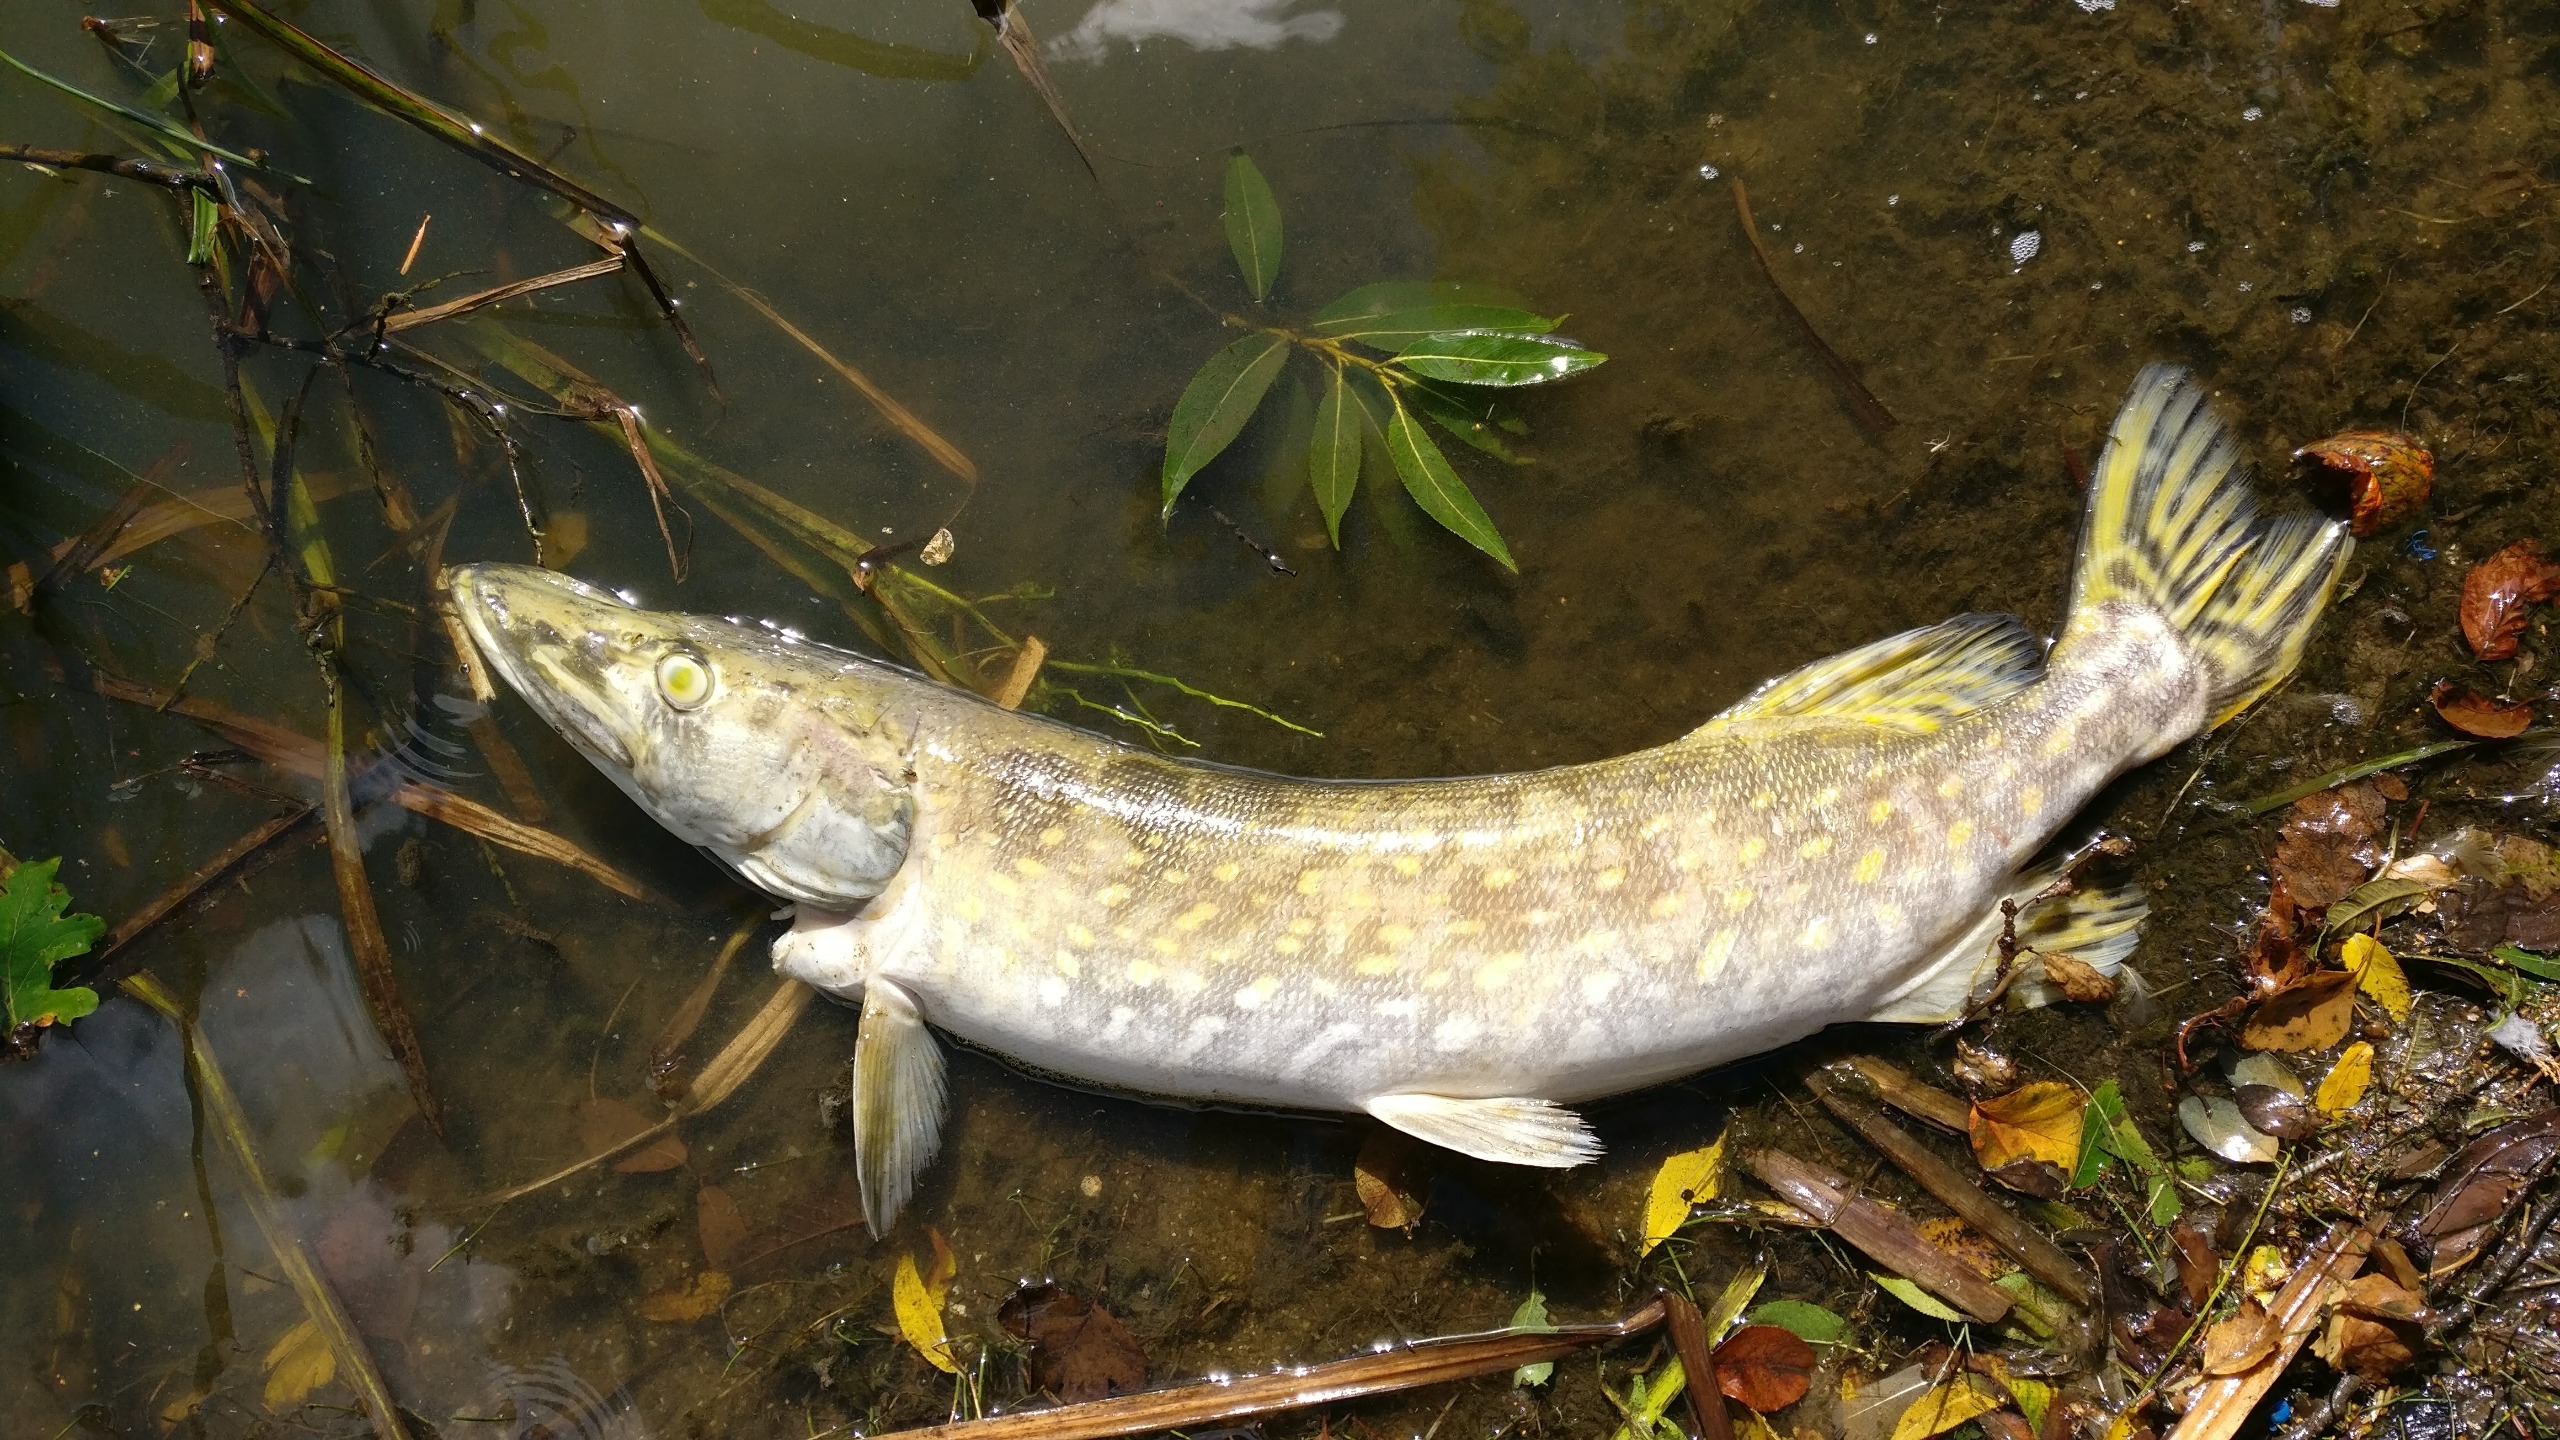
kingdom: Animalia
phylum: Chordata
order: Esociformes
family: Esocidae
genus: Esox
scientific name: Esox lucius
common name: Gedde
